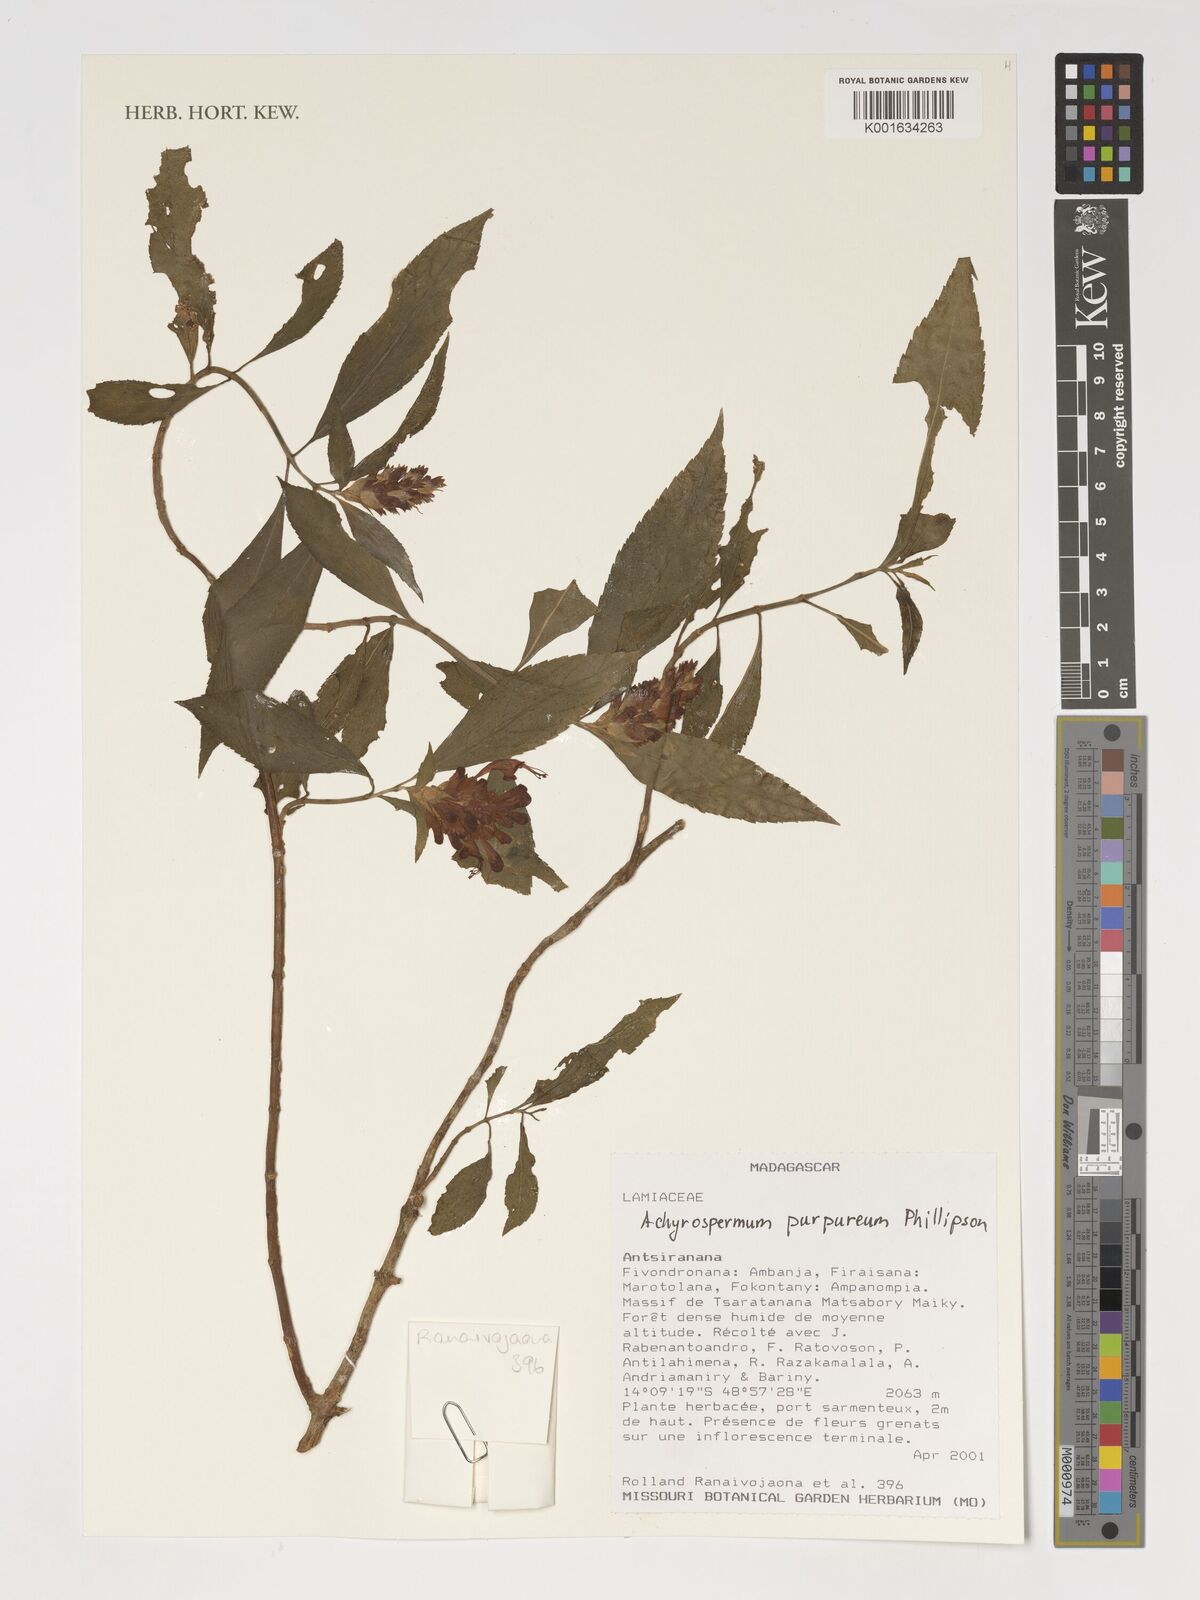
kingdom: Plantae
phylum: Tracheophyta
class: Magnoliopsida
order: Lamiales
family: Lamiaceae
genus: Achyrospermum
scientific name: Achyrospermum purpureum
